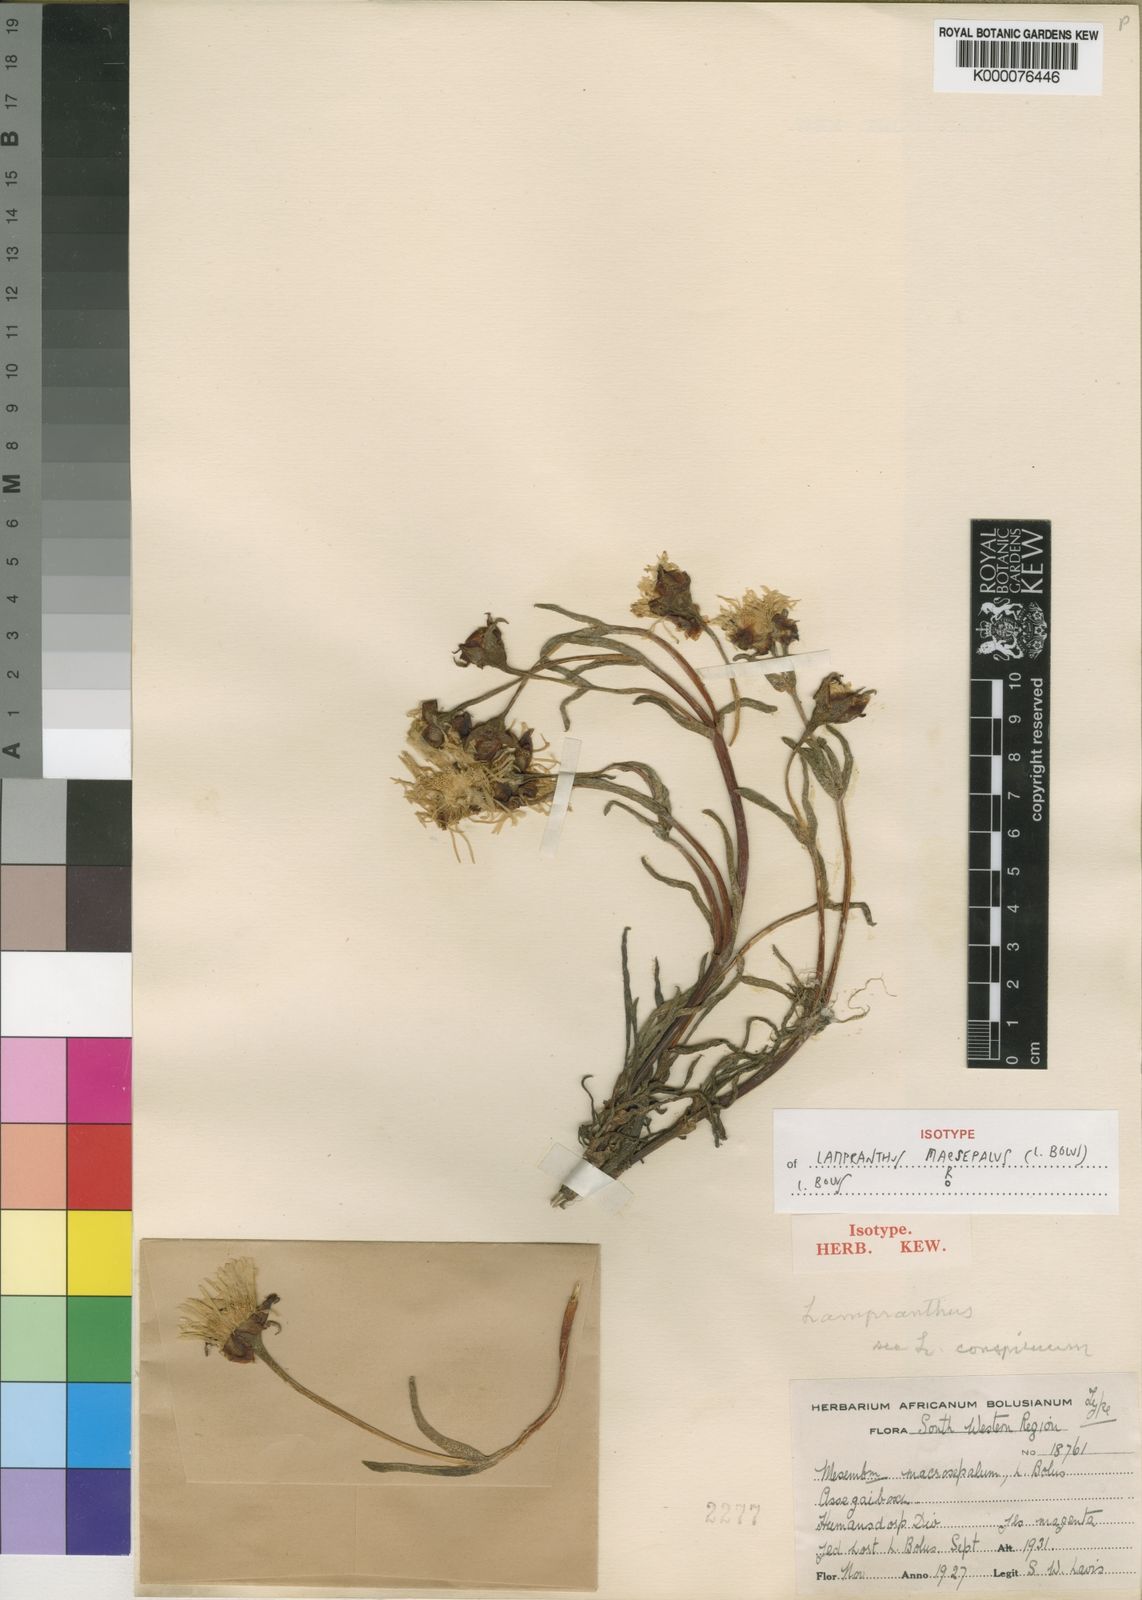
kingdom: Plantae
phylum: Tracheophyta
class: Magnoliopsida
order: Caryophyllales
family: Aizoaceae
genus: Lampranthus
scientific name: Lampranthus macrosepalus
